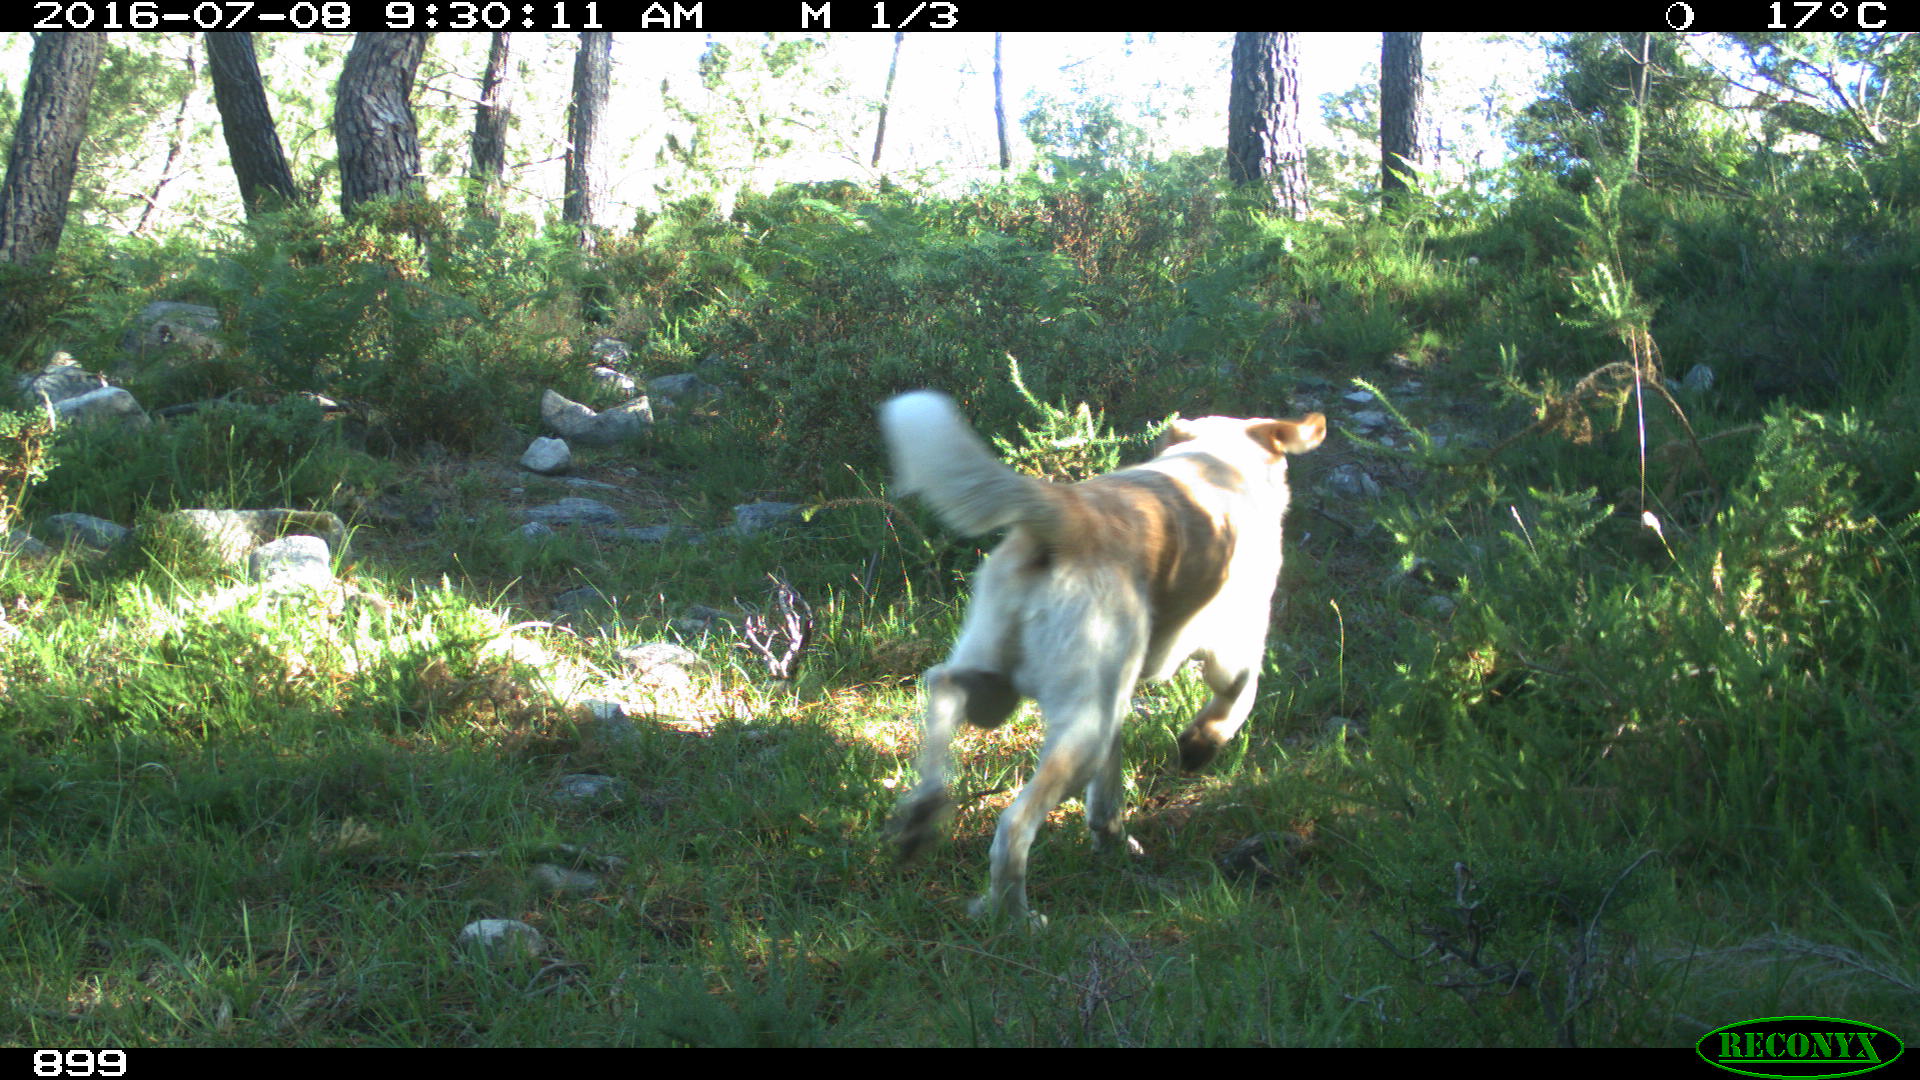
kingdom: Animalia
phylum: Chordata
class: Mammalia
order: Carnivora
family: Canidae
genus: Canis
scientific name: Canis lupus
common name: Gray wolf
